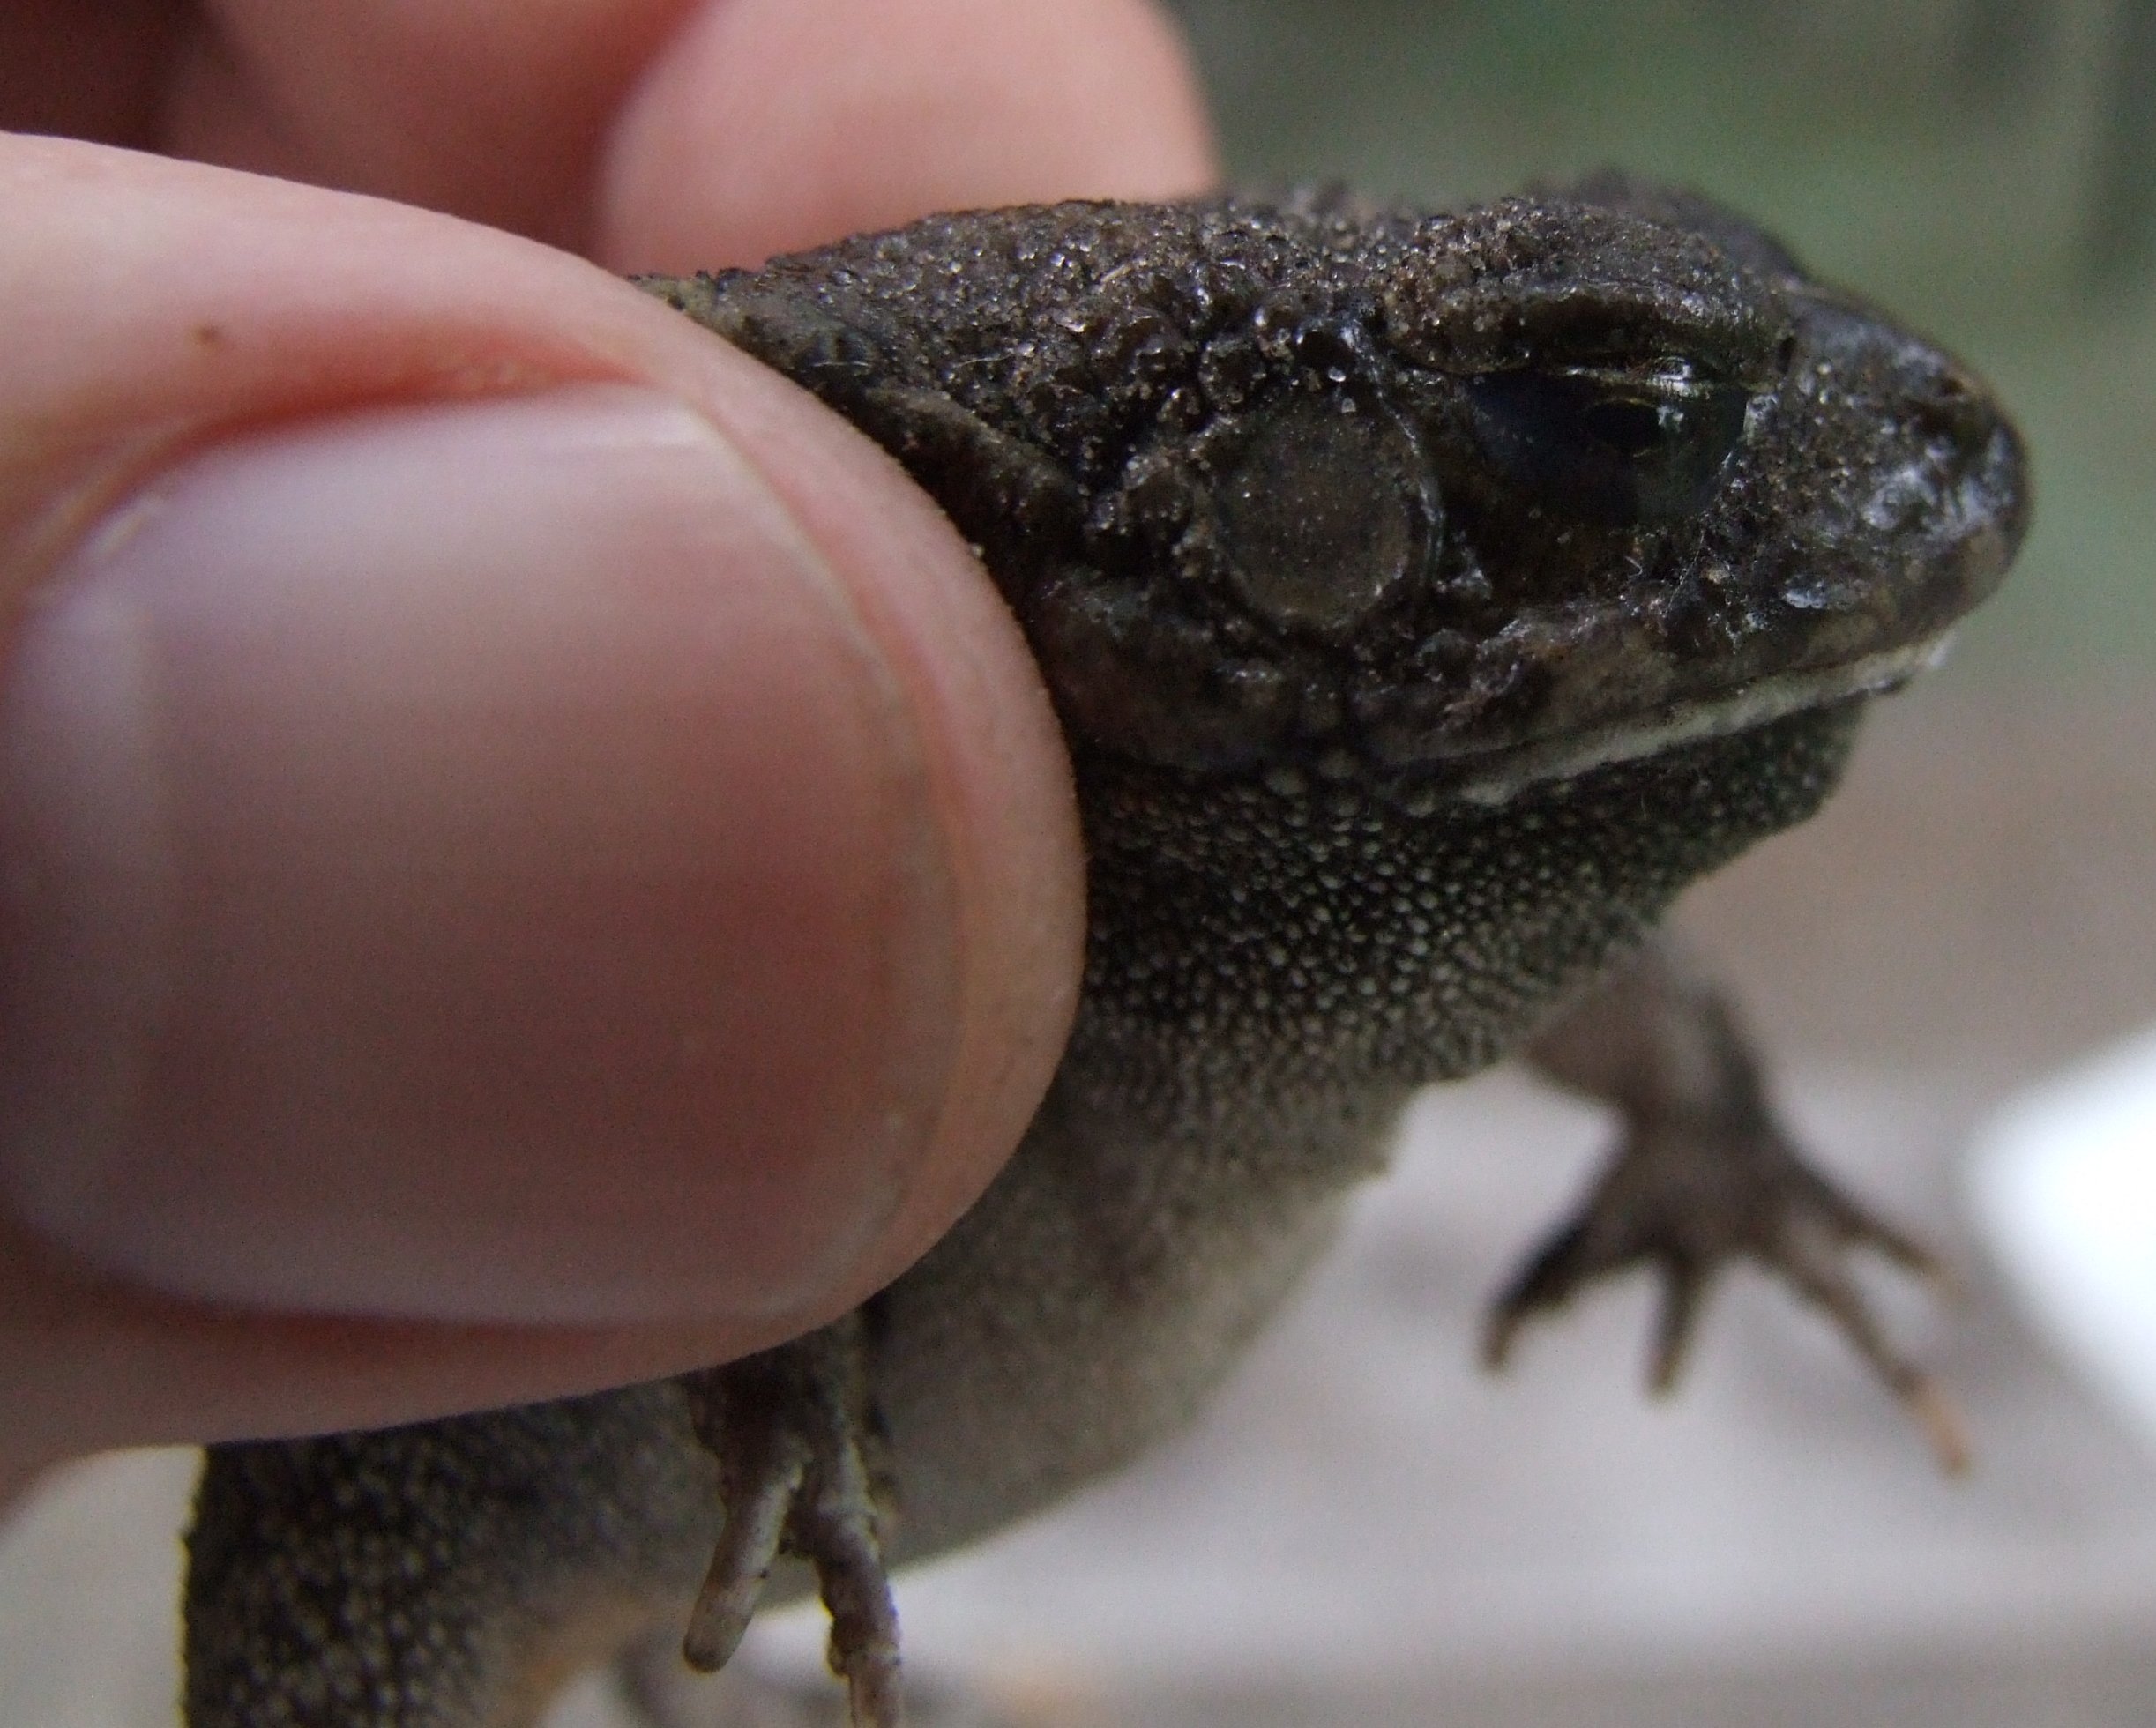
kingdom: Animalia
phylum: Chordata
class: Amphibia
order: Anura
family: Bufonidae
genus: Sclerophrys
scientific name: Sclerophrys
